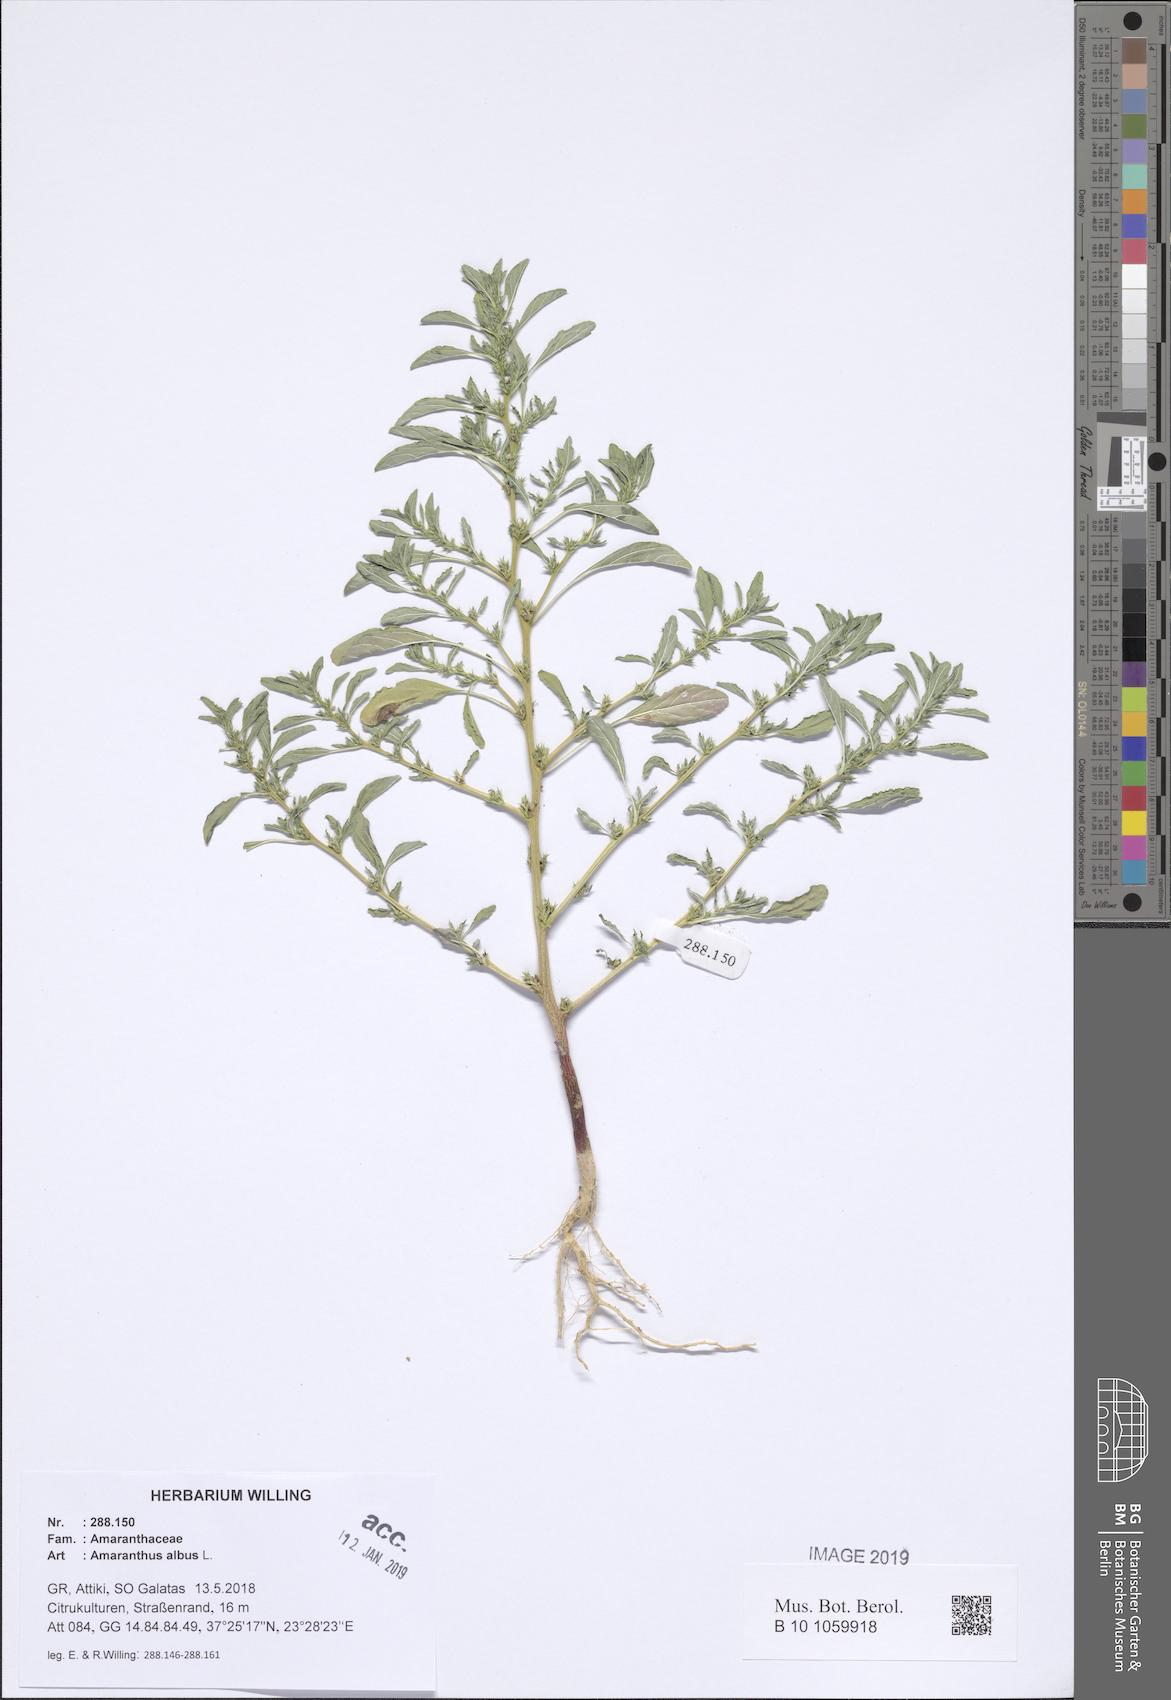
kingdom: Plantae
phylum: Tracheophyta
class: Magnoliopsida
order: Caryophyllales
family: Amaranthaceae
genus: Amaranthus
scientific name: Amaranthus albus
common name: White pigweed
